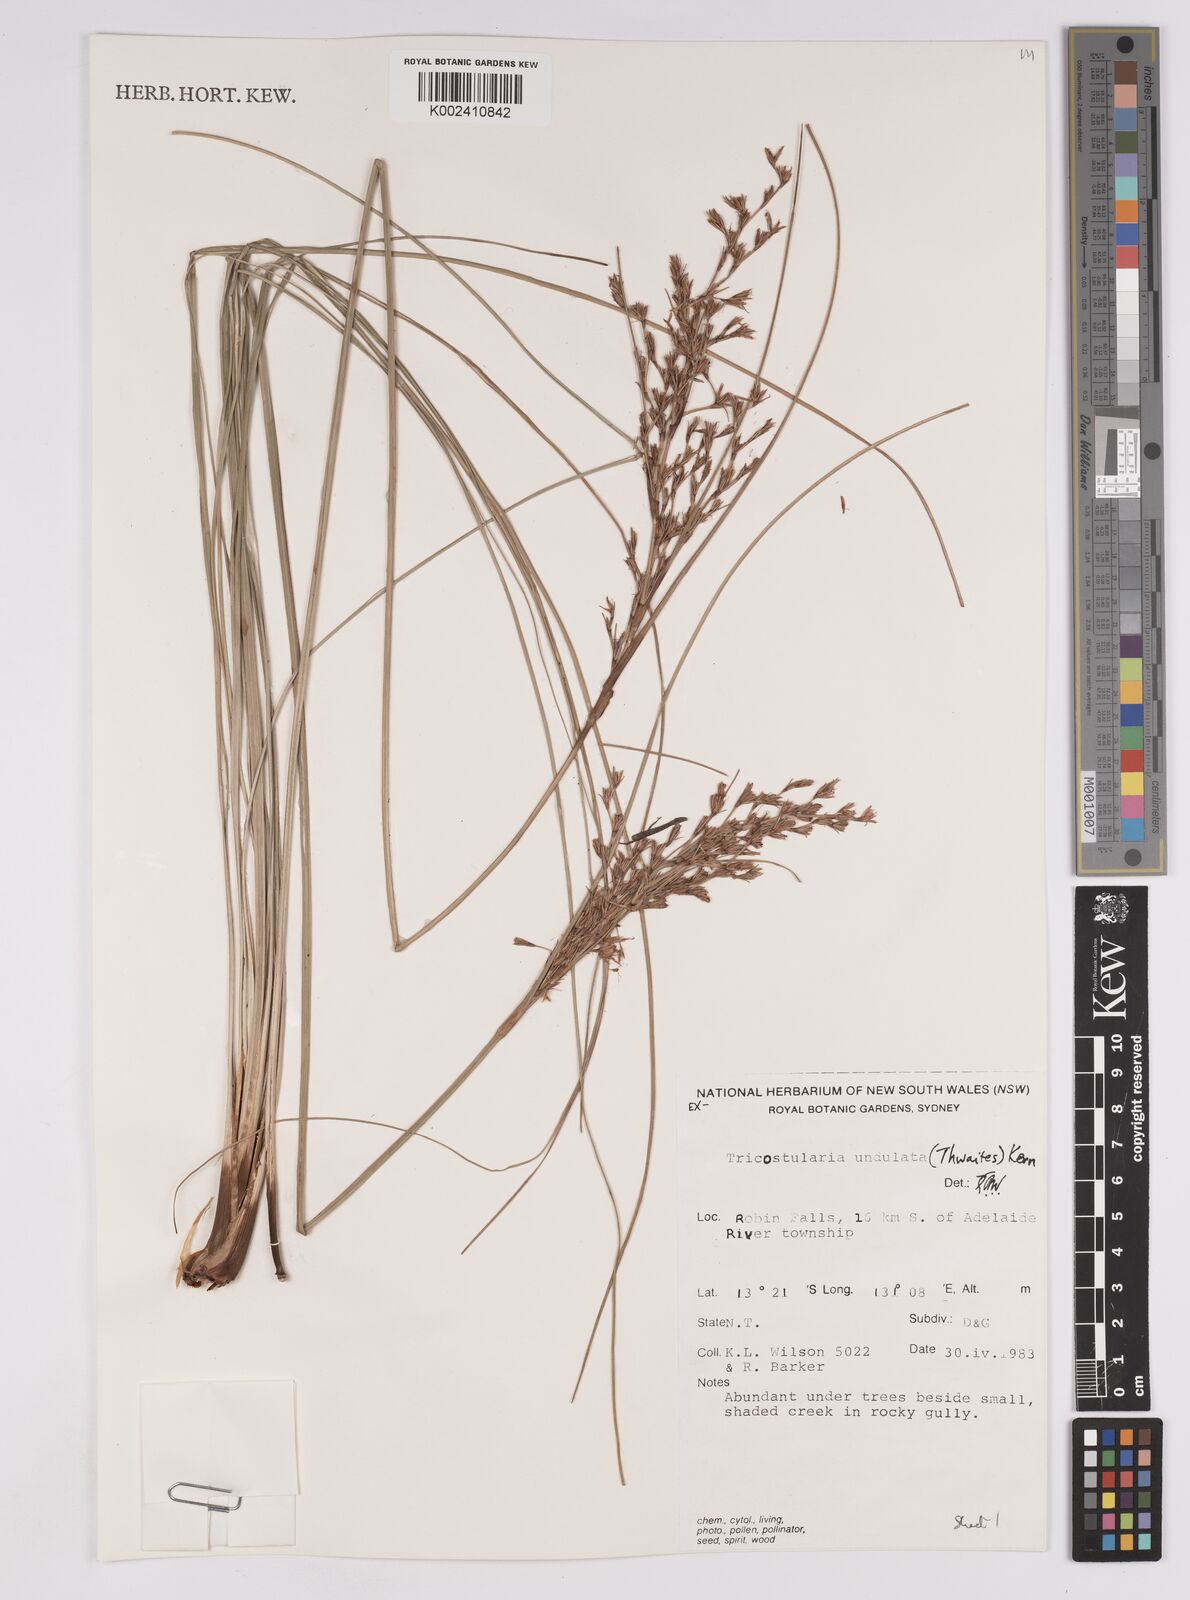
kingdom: Plantae
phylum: Tracheophyta
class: Liliopsida
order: Poales
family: Cyperaceae
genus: Anthelepis
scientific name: Anthelepis undulata
